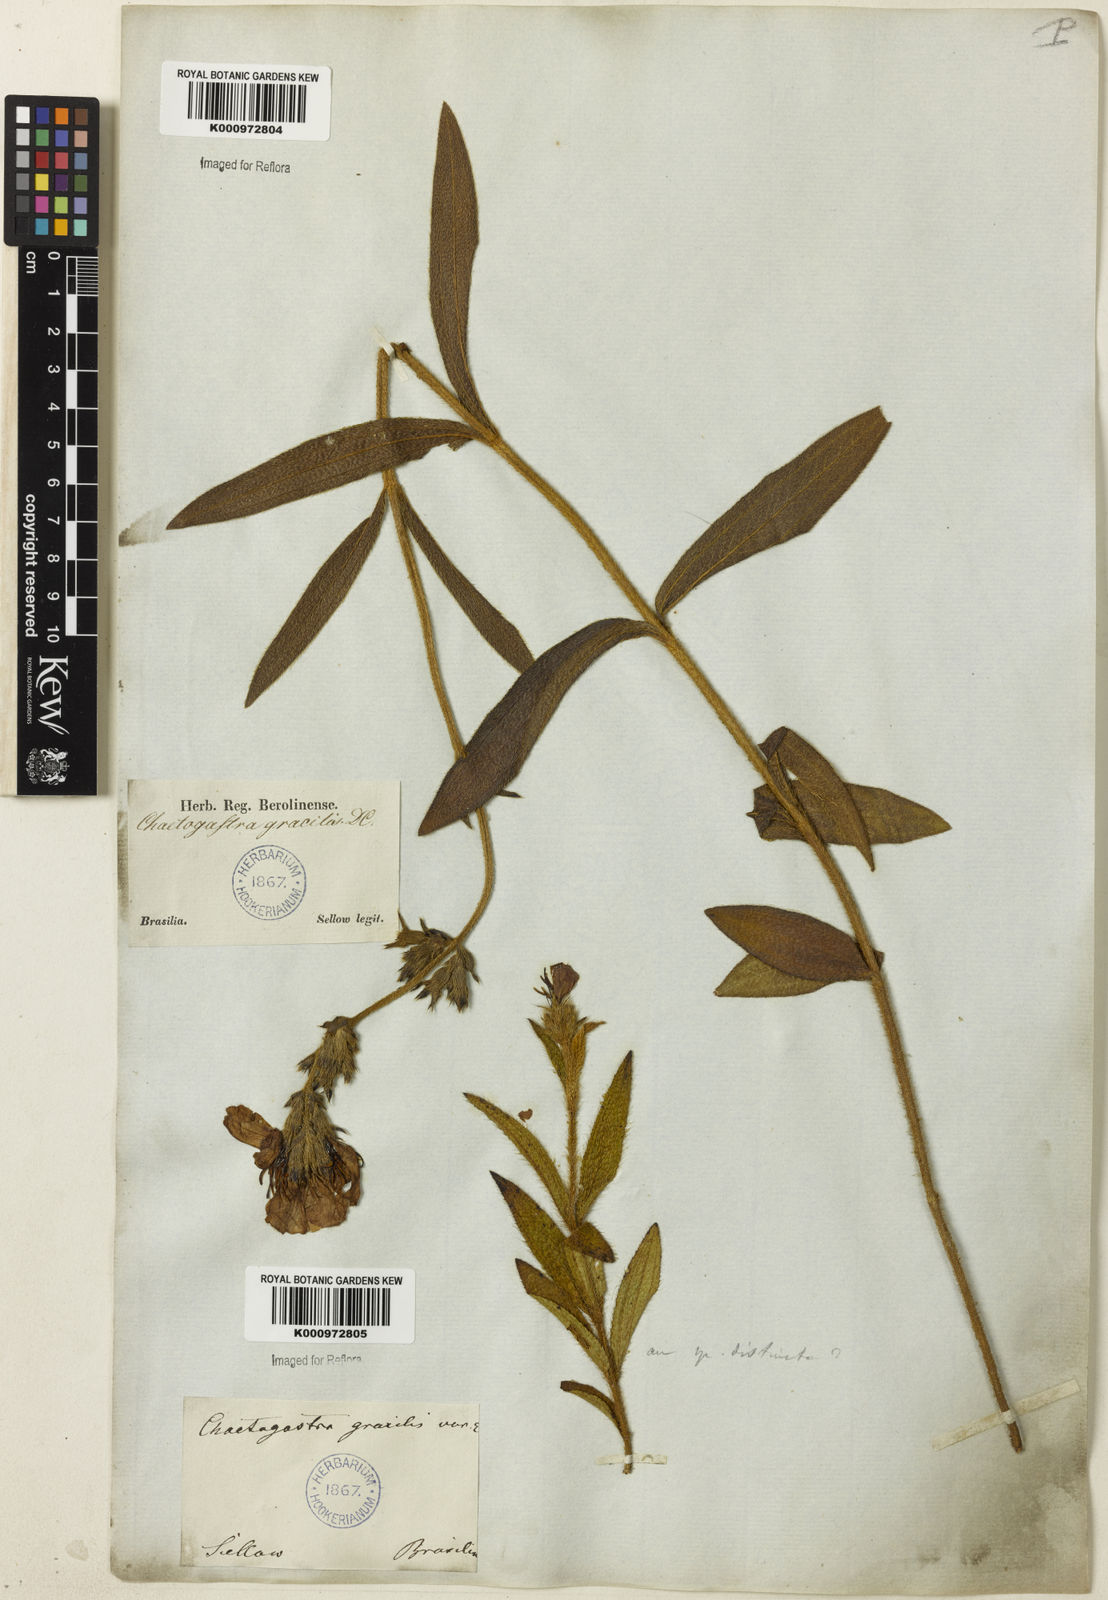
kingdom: Plantae
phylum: Tracheophyta
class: Magnoliopsida
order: Myrtales
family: Melastomataceae
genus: Chaetogastra
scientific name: Chaetogastra gracilis
